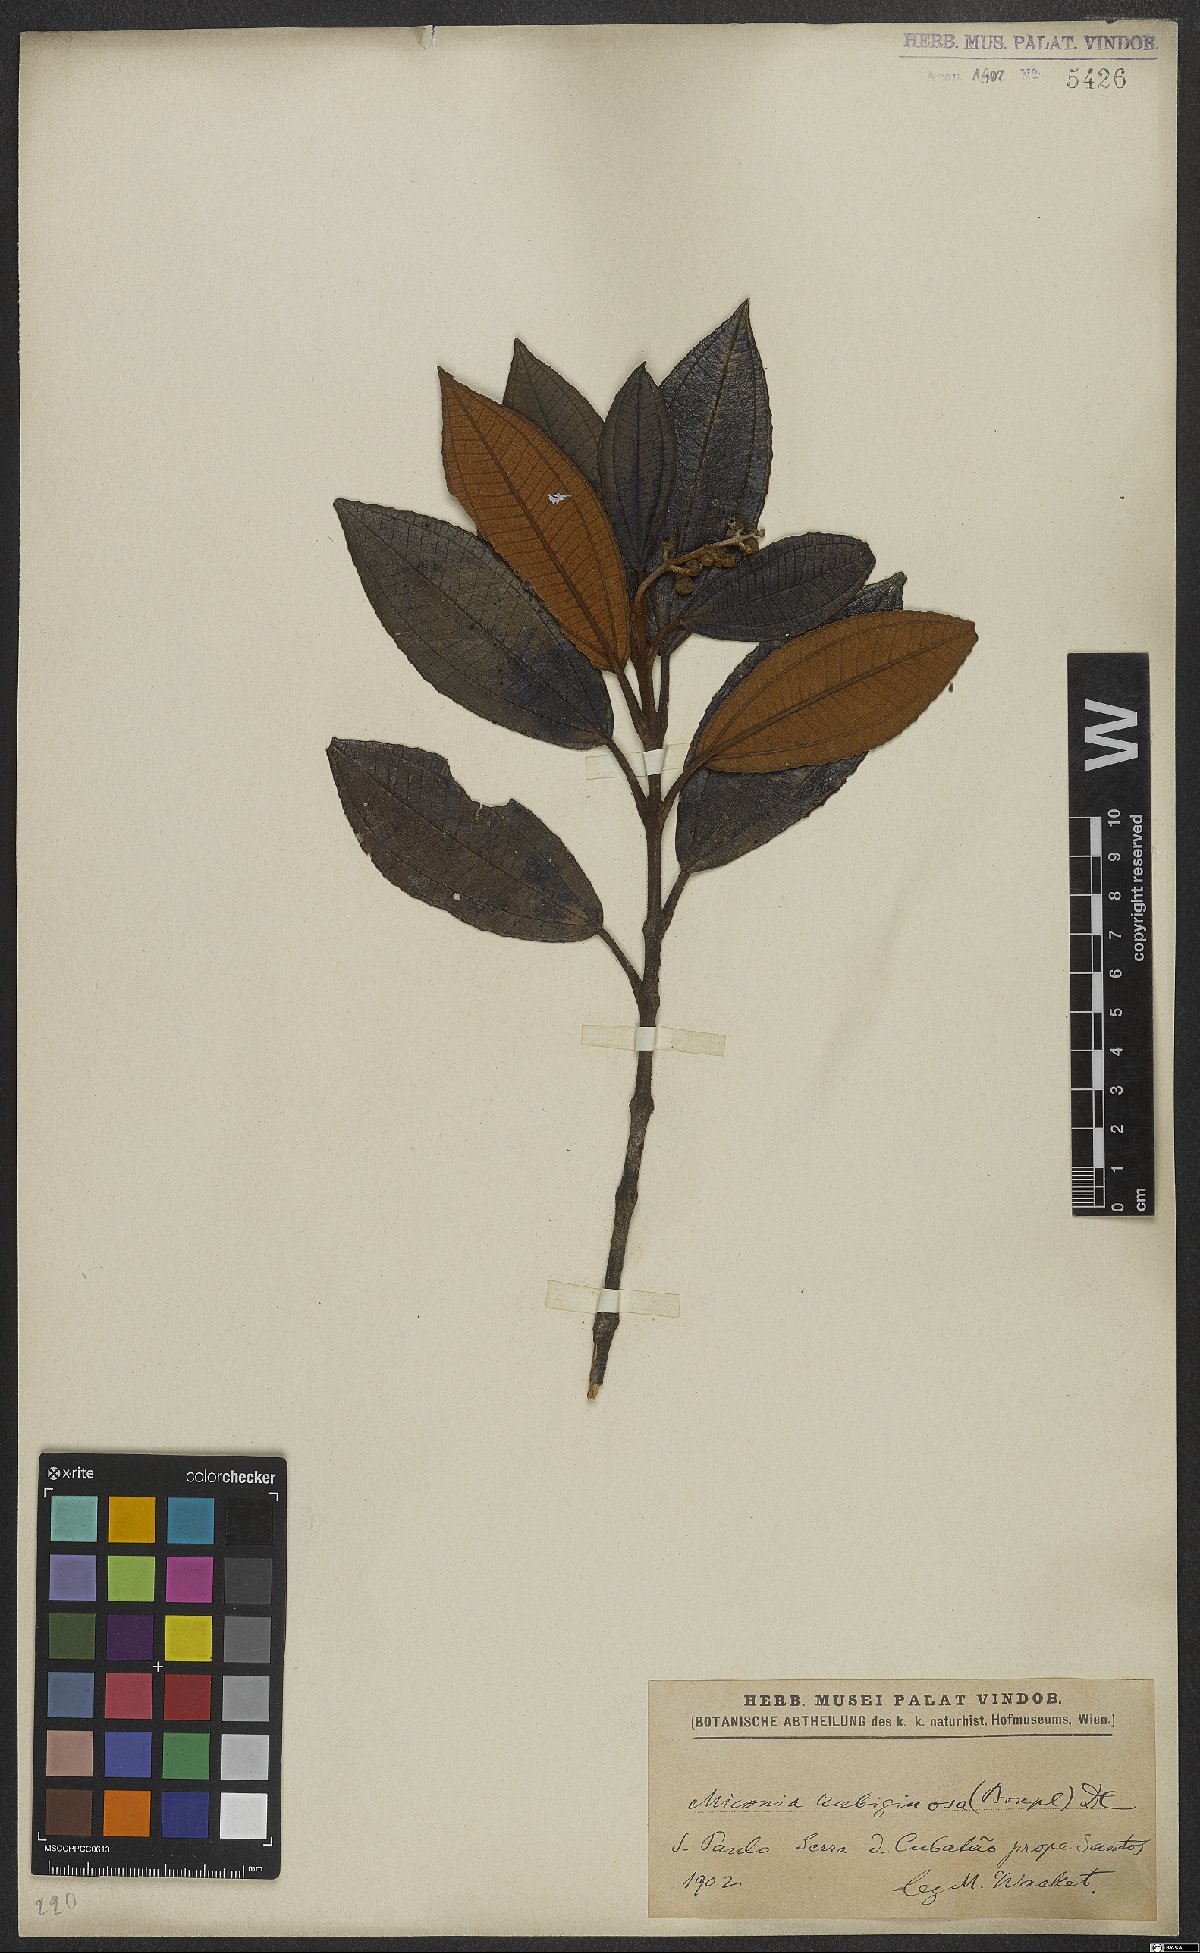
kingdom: Plantae
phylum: Tracheophyta
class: Magnoliopsida
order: Myrtales
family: Melastomataceae
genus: Miconia
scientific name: Miconia rubiginosa
